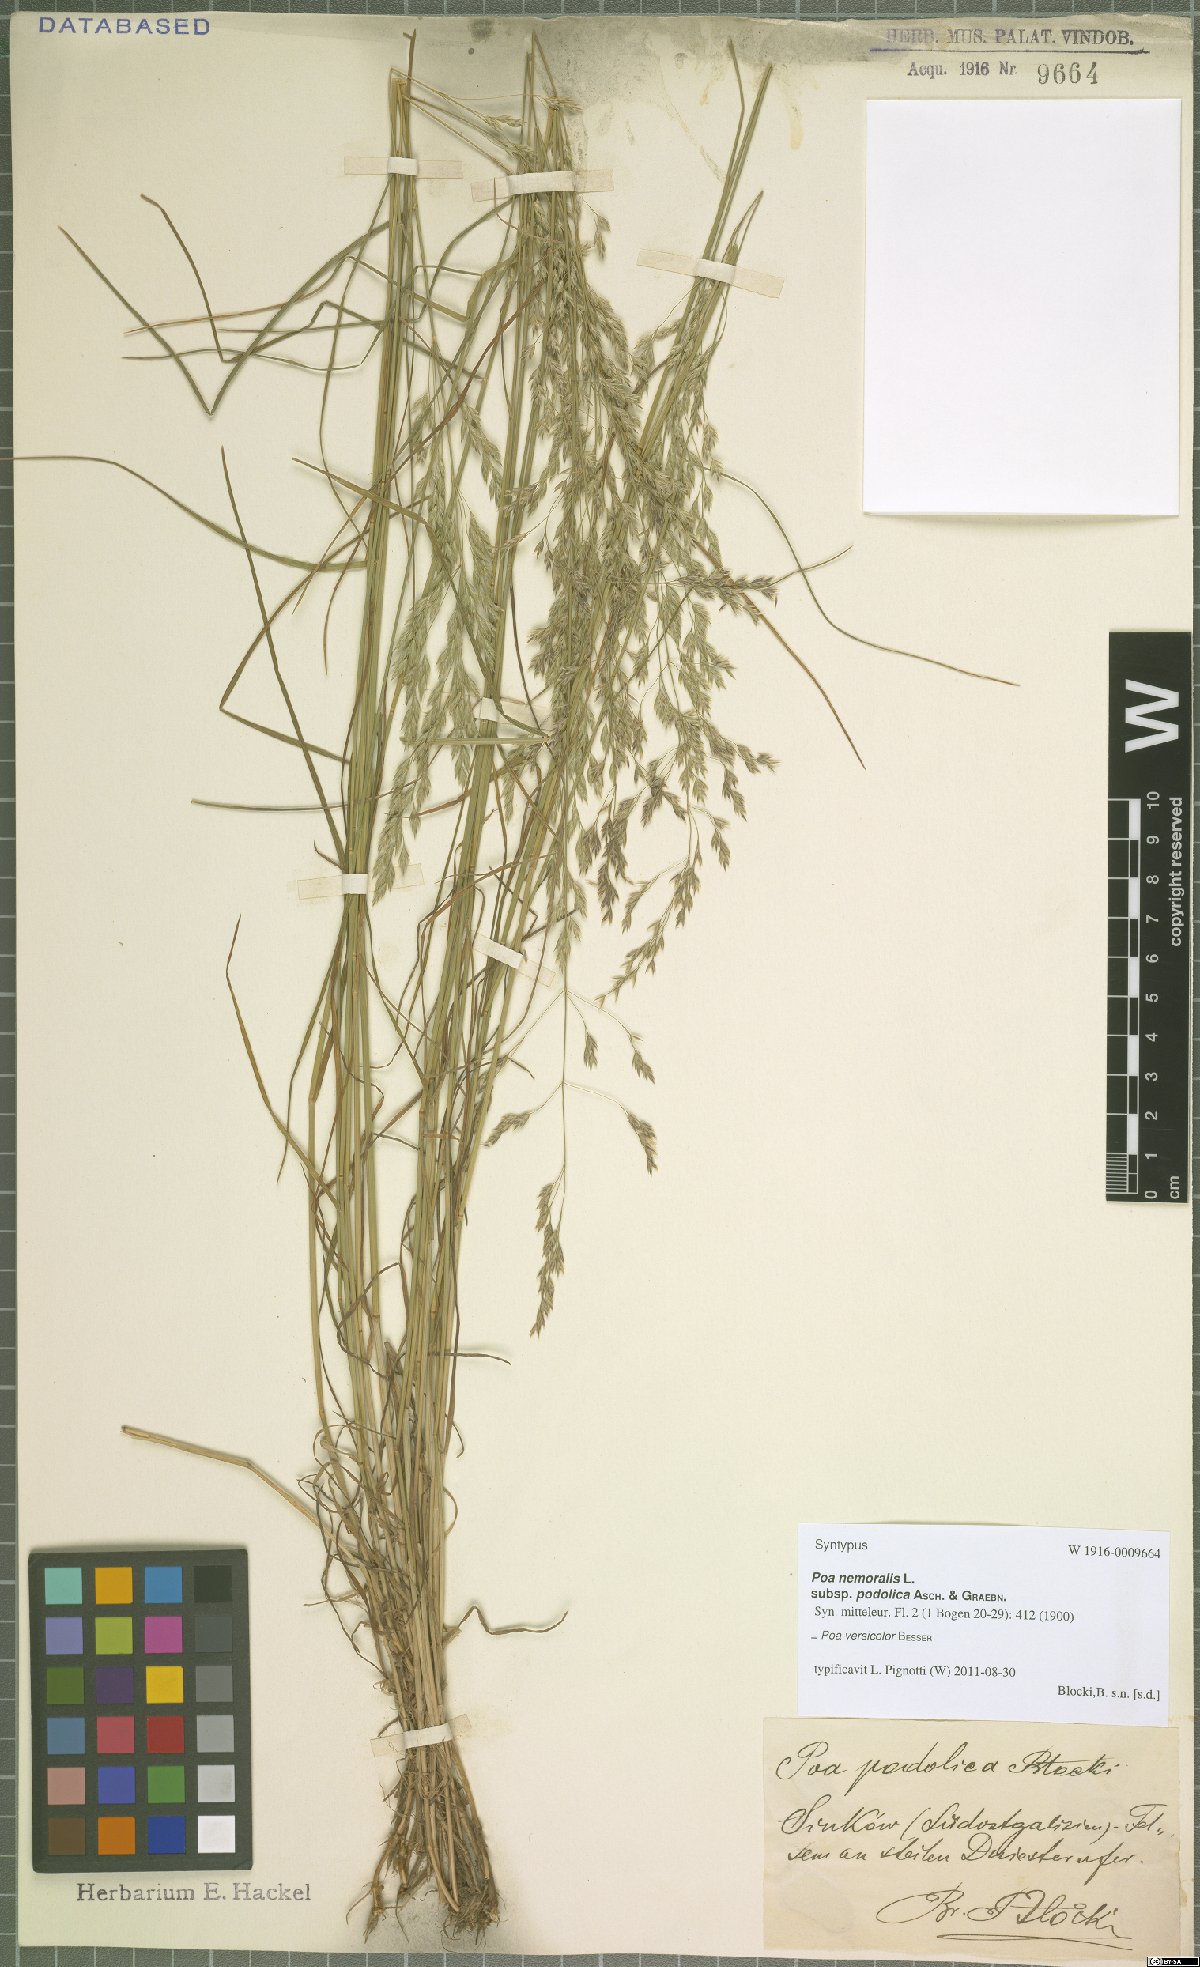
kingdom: Plantae
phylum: Tracheophyta
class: Liliopsida
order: Poales
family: Poaceae
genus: Poa
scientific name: Poa versicolor
